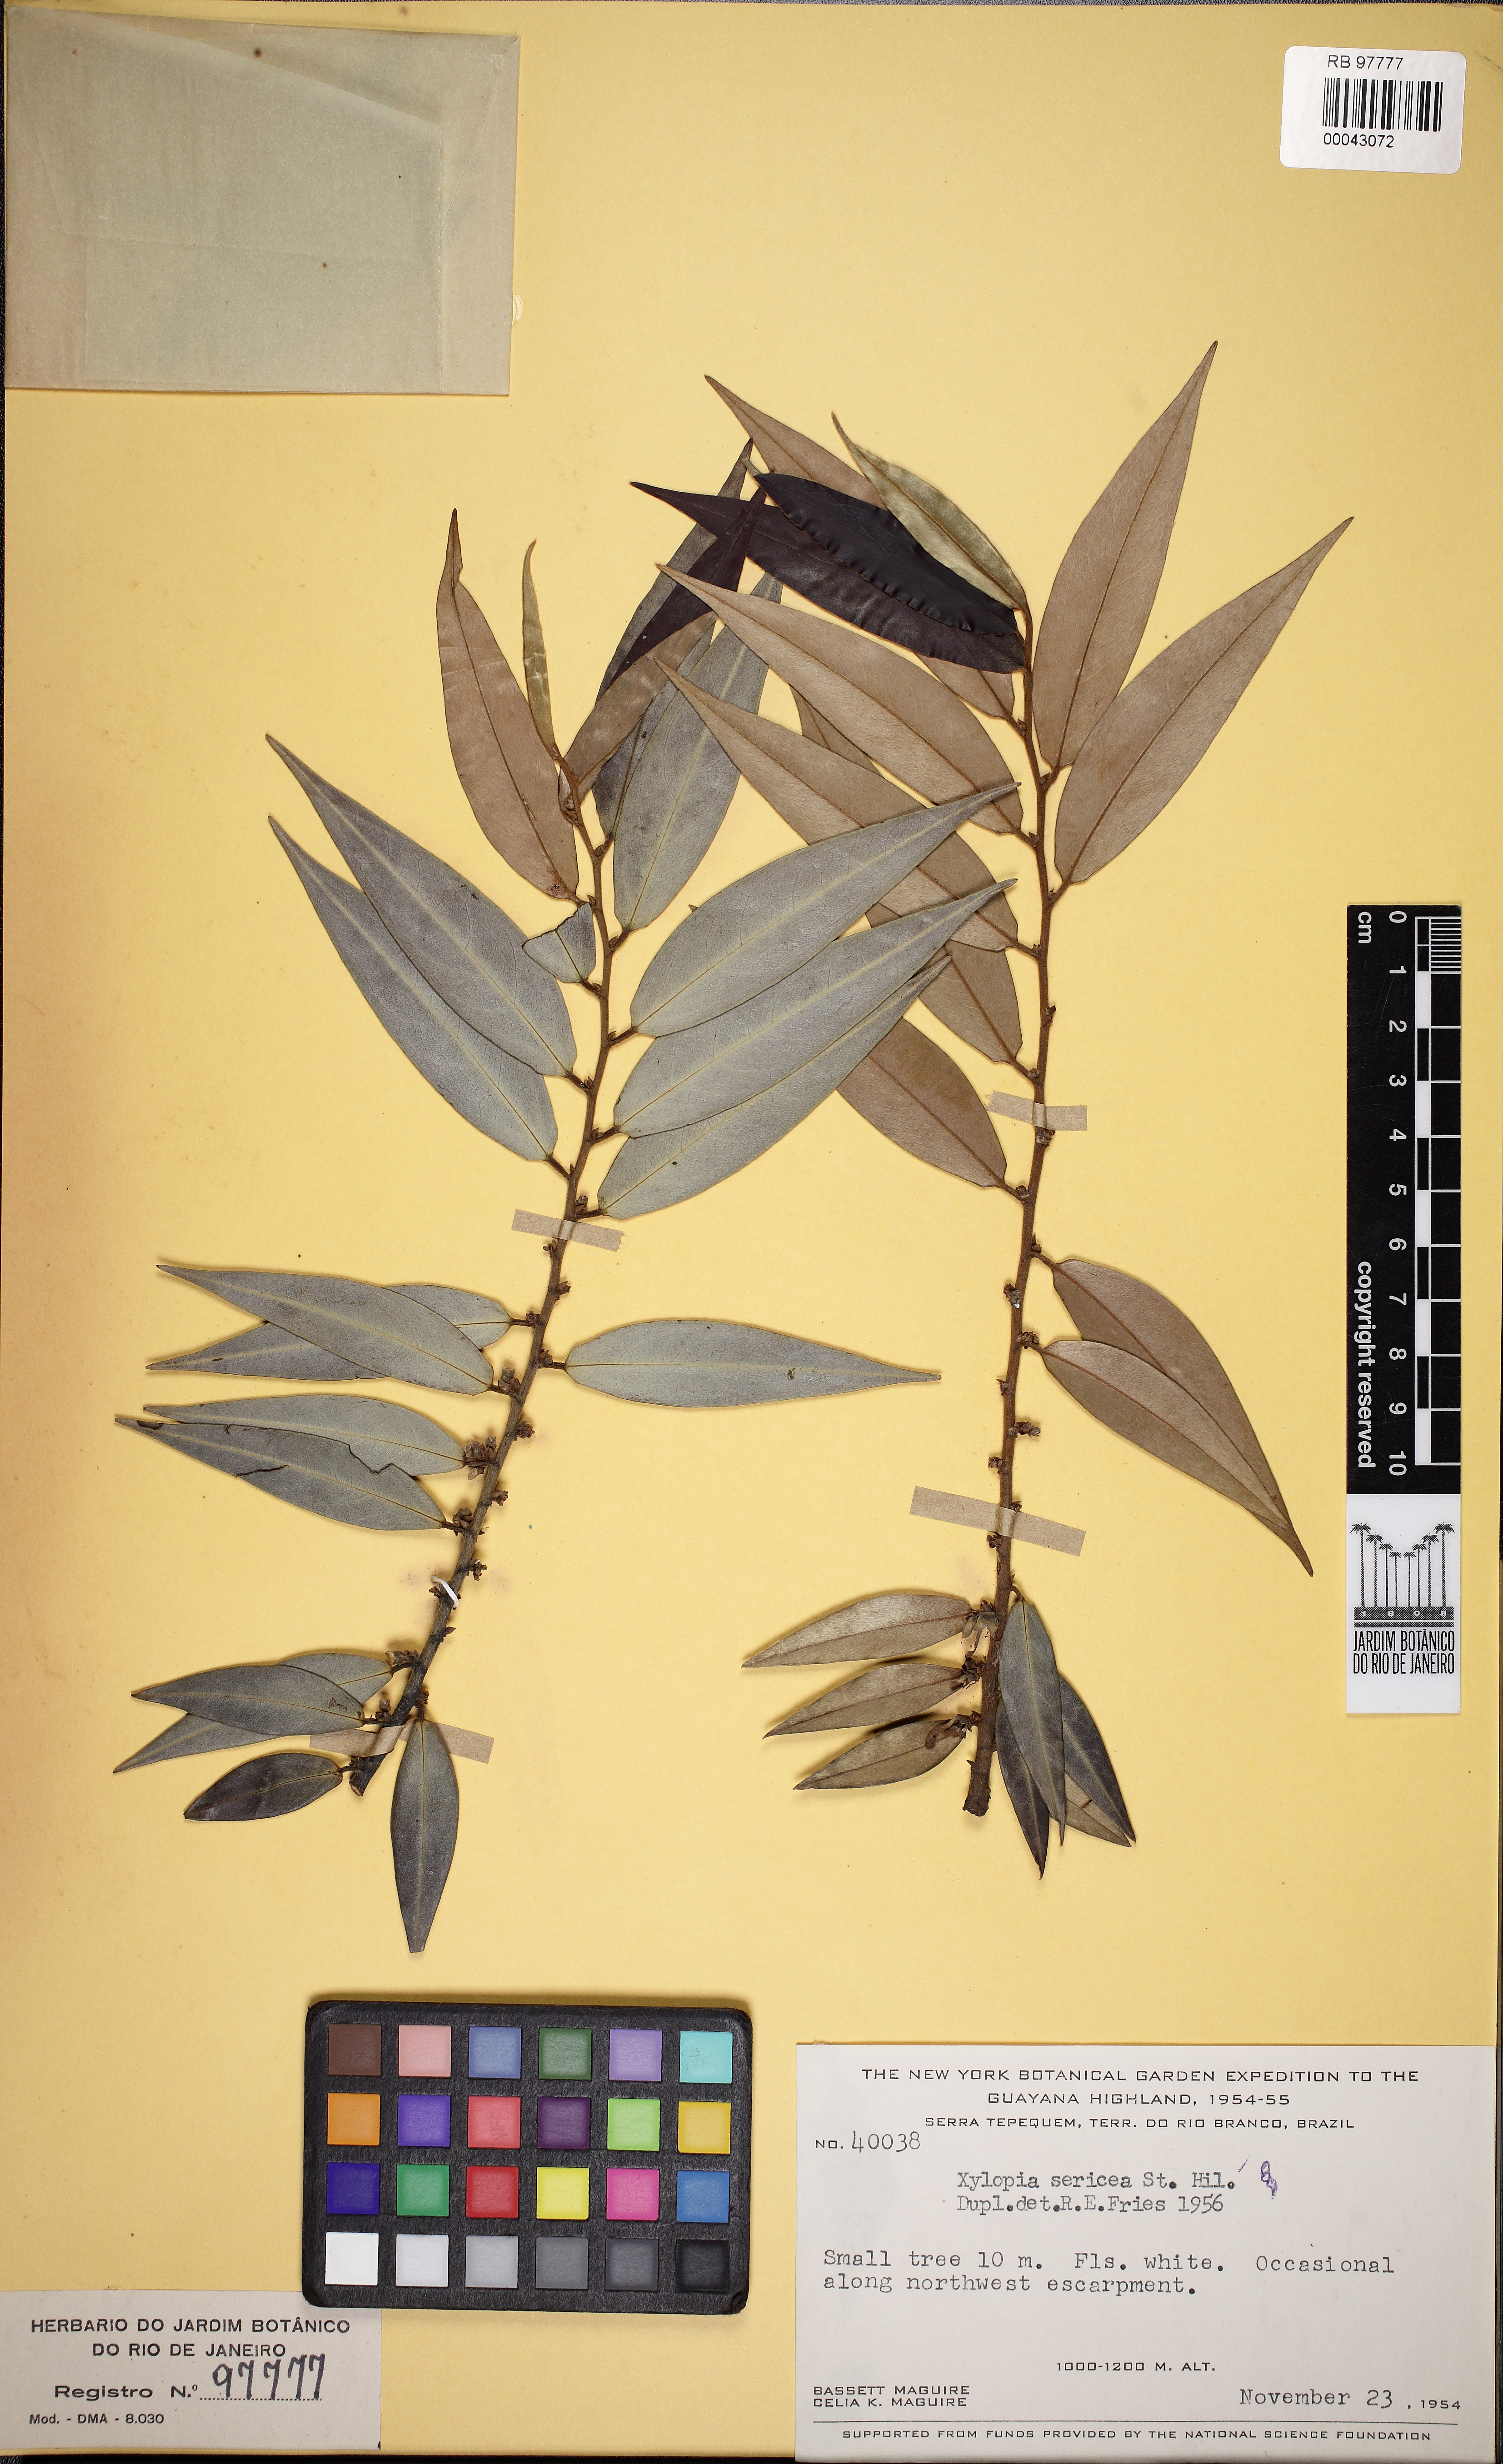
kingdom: Plantae
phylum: Tracheophyta
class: Magnoliopsida
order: Magnoliales
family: Annonaceae
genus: Xylopia
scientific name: Xylopia sericea
